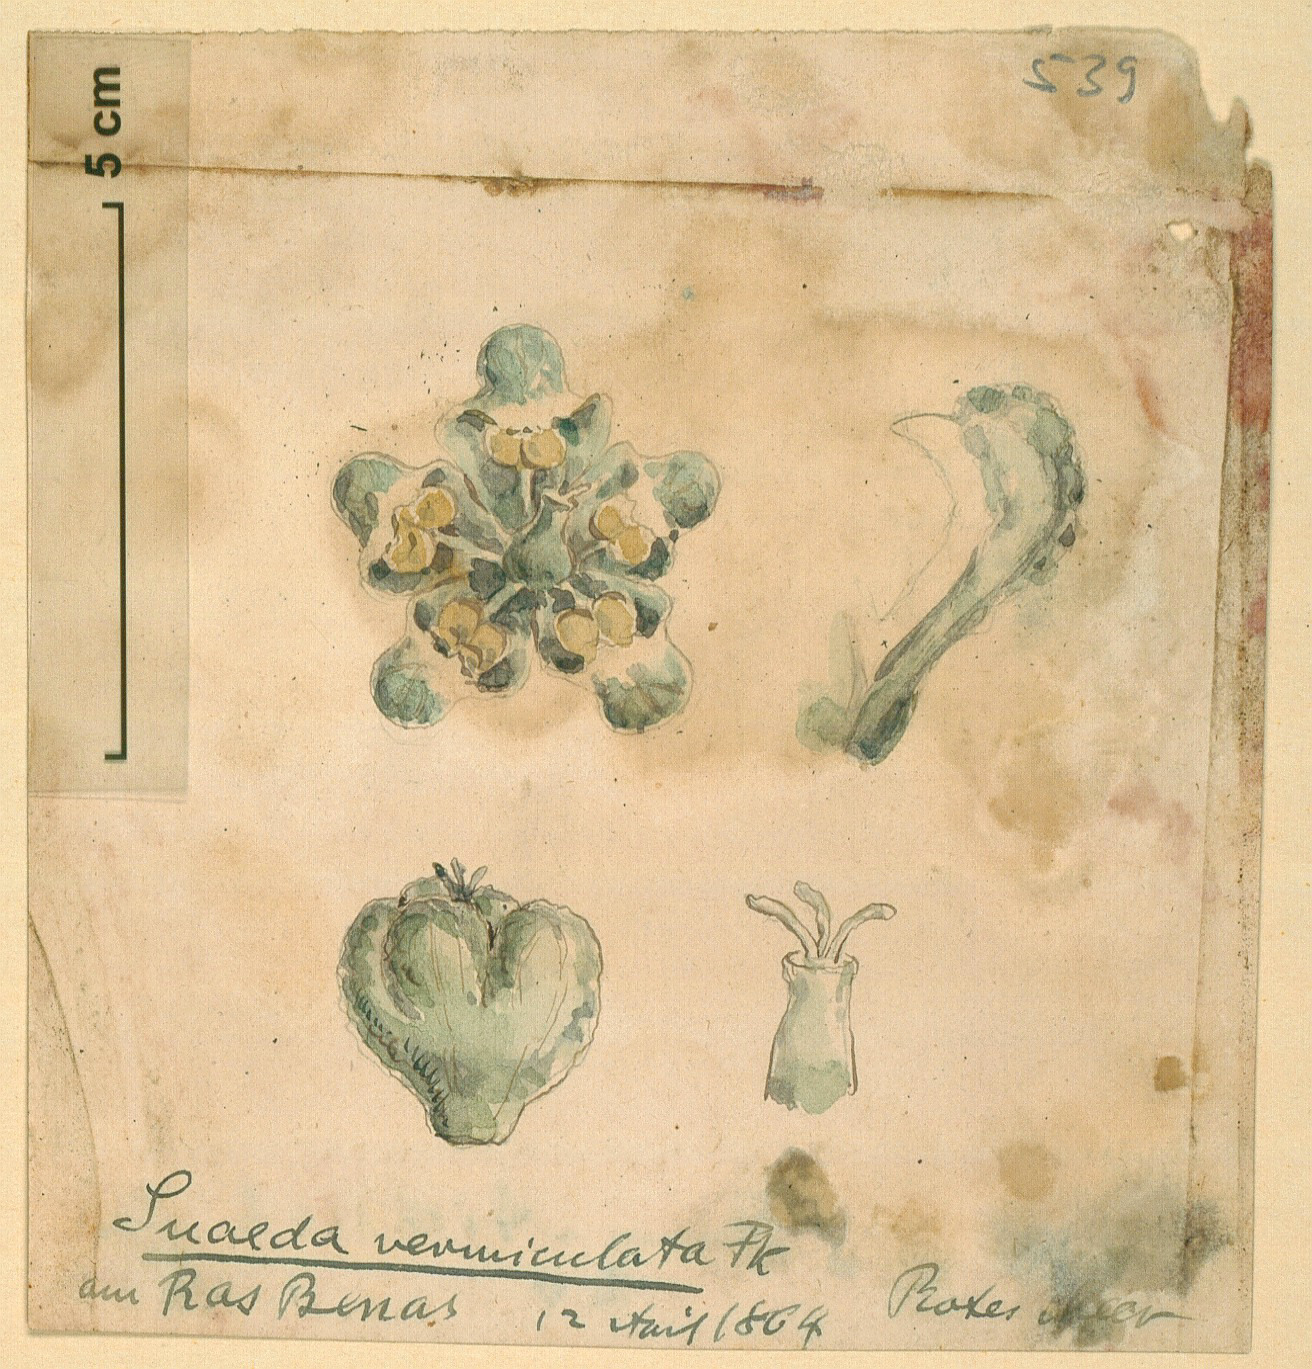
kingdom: Plantae
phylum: Tracheophyta
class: Magnoliopsida
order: Caryophyllales
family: Amaranthaceae
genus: Suaeda
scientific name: Suaeda vermiculata
